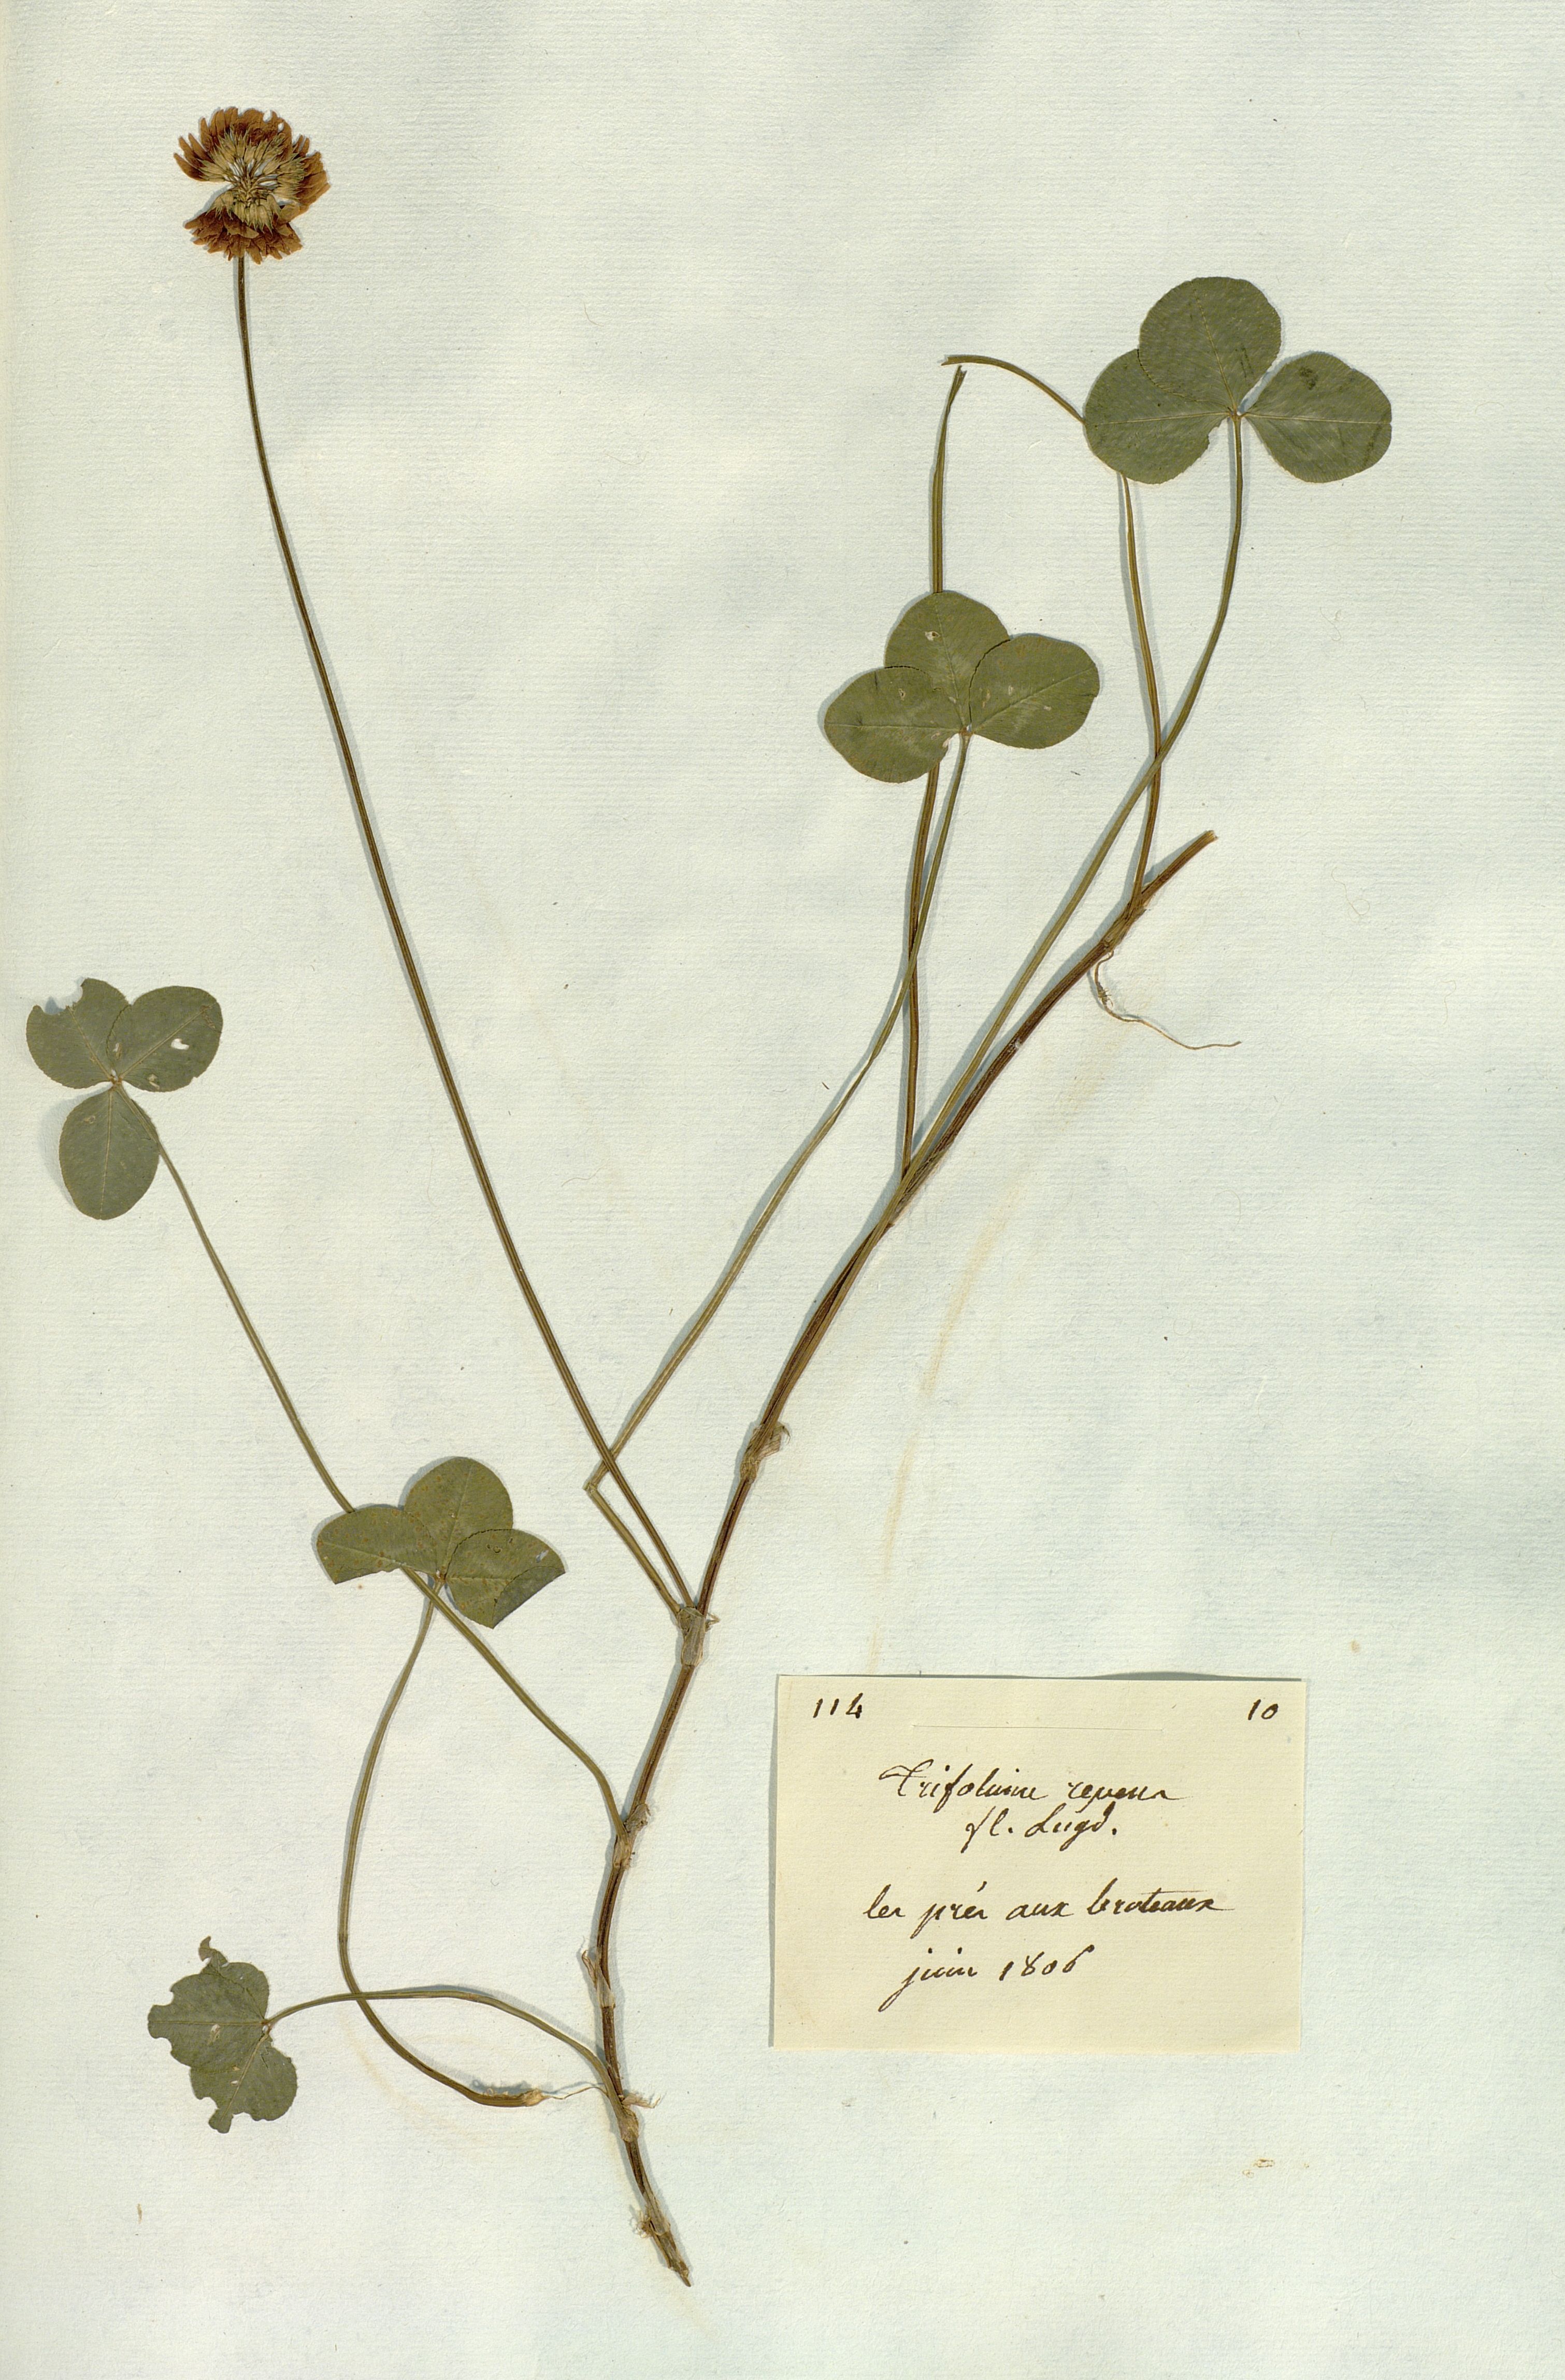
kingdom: Plantae
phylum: Tracheophyta
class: Magnoliopsida
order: Fabales
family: Fabaceae
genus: Trifolium
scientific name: Trifolium repens
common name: White clover
